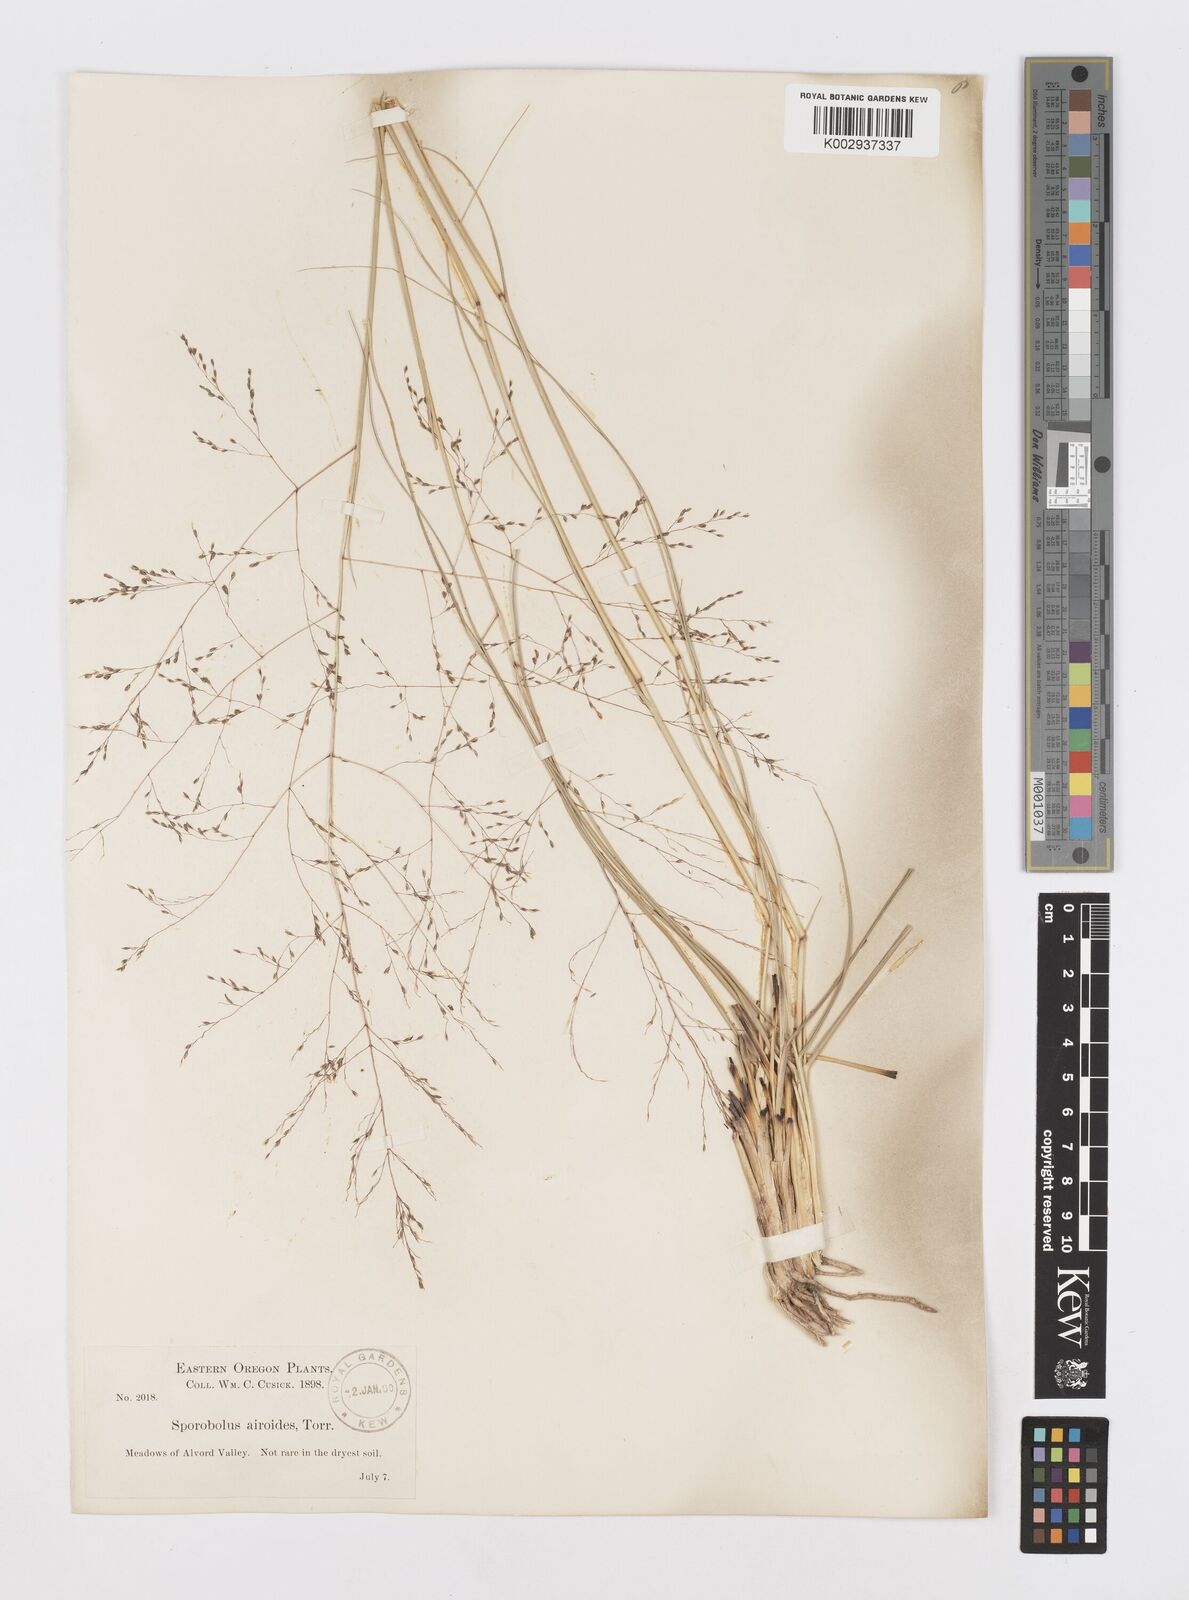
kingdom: Plantae
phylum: Tracheophyta
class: Liliopsida
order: Poales
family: Poaceae
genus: Sporobolus
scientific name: Sporobolus airoides
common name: Alkali sacaton
